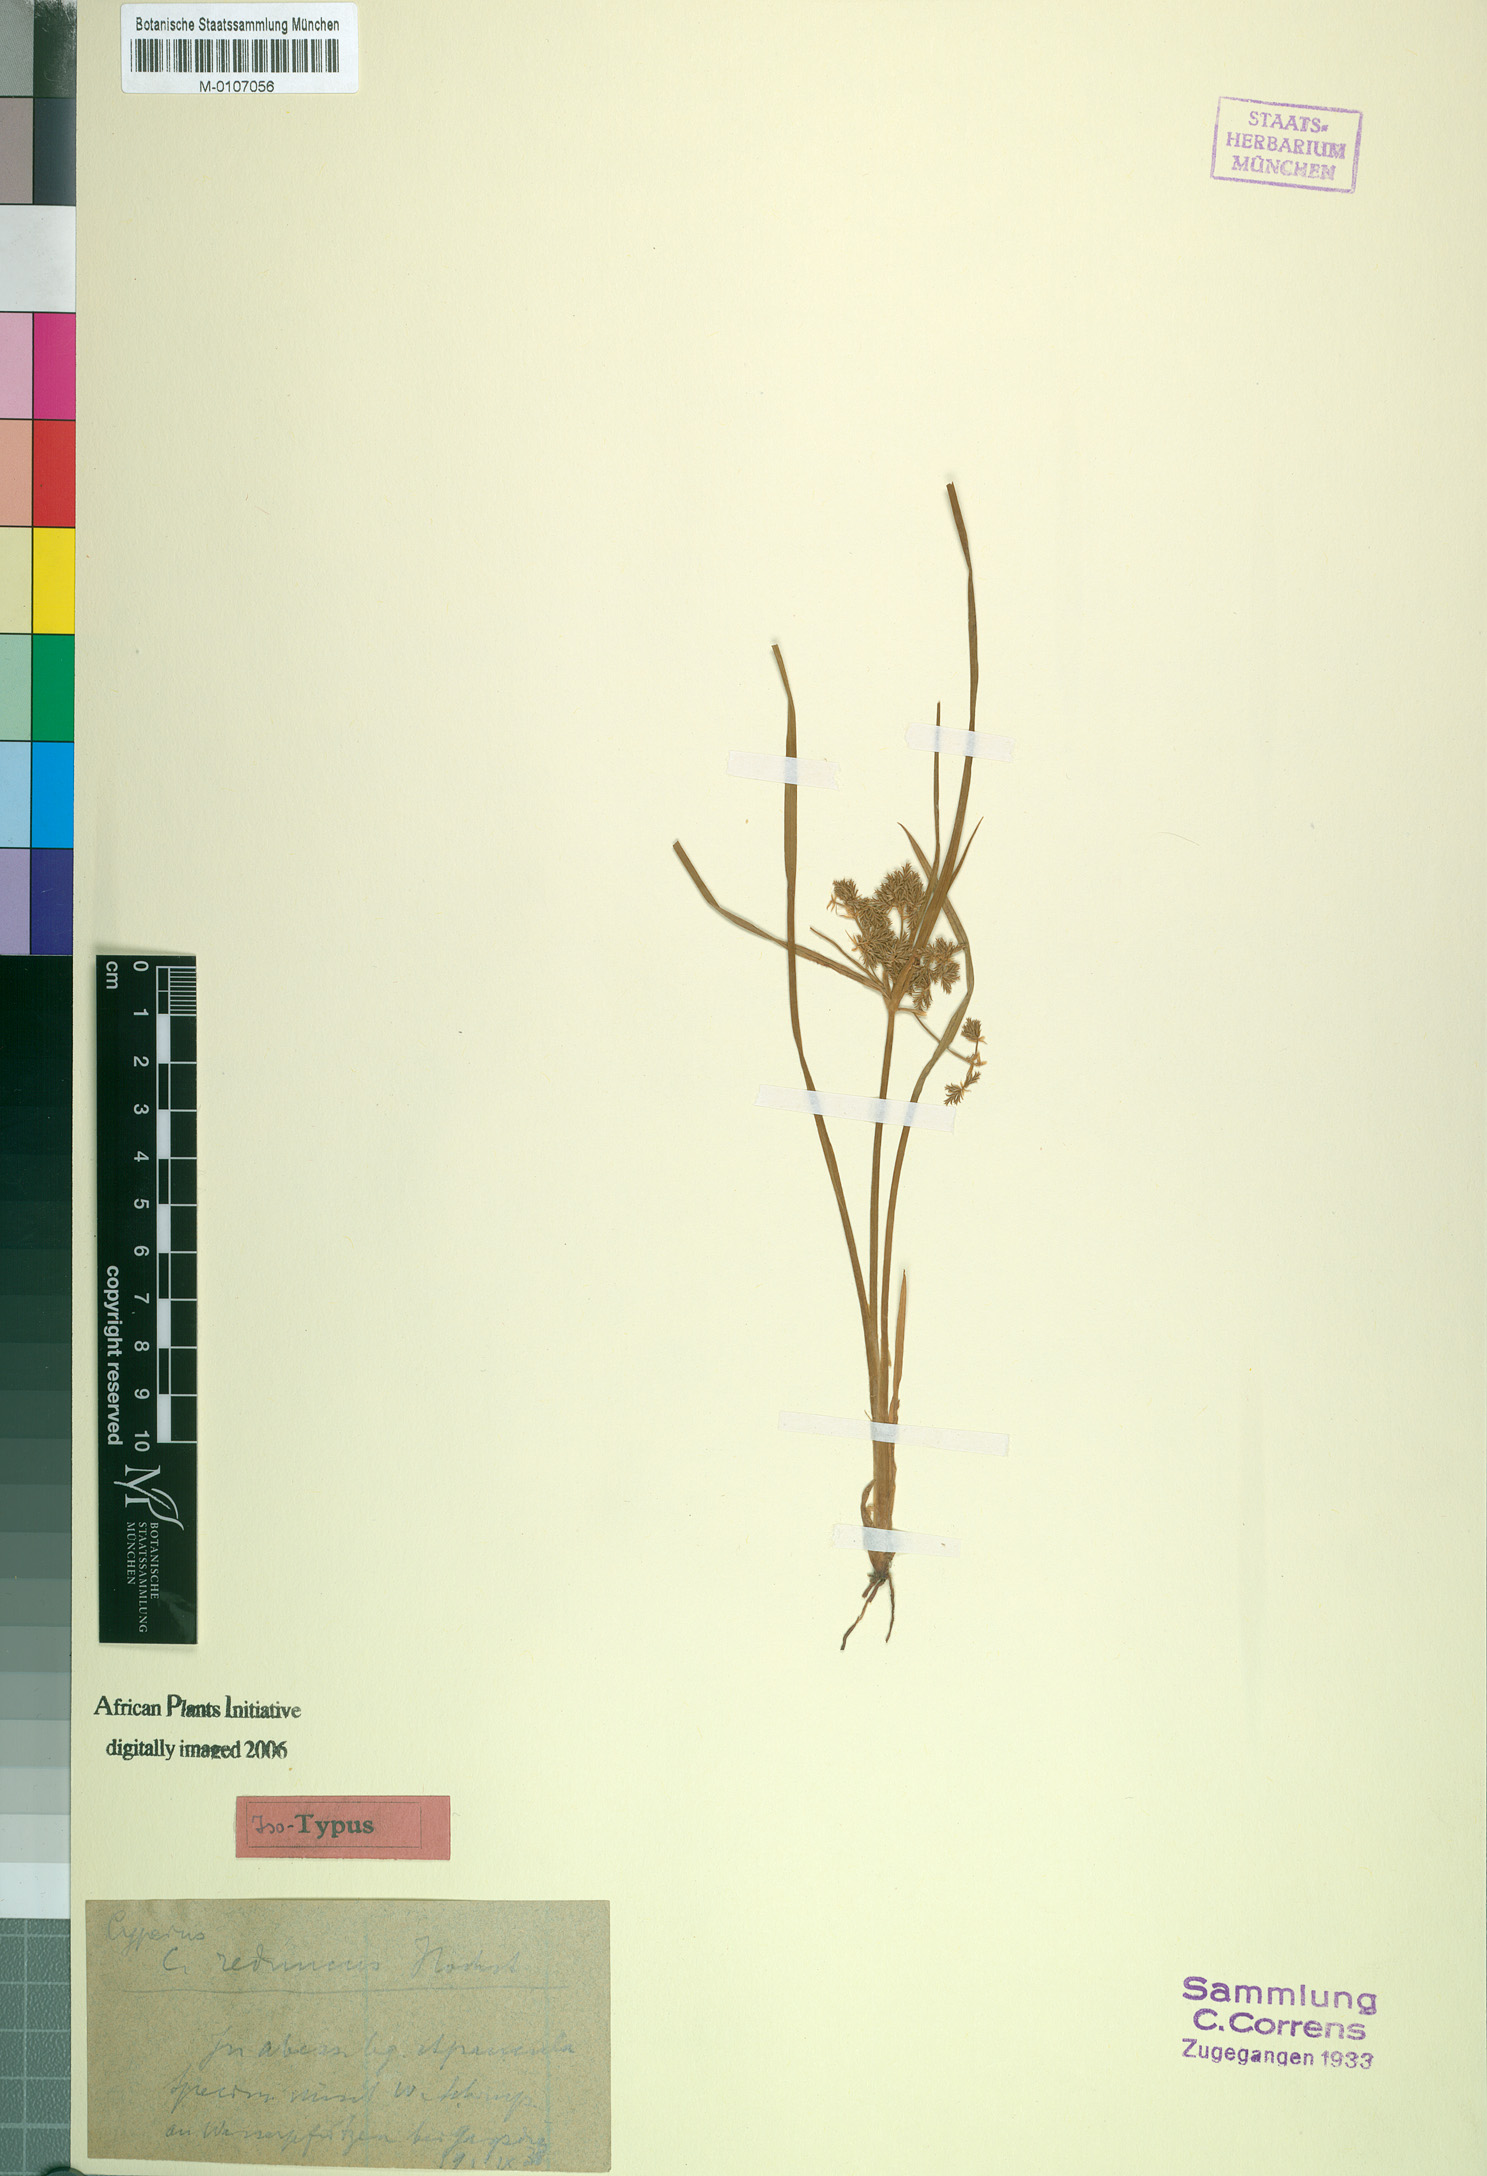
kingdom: Plantae
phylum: Tracheophyta
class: Liliopsida
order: Poales
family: Cyperaceae
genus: Cyperus
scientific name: Cyperus reduncus
